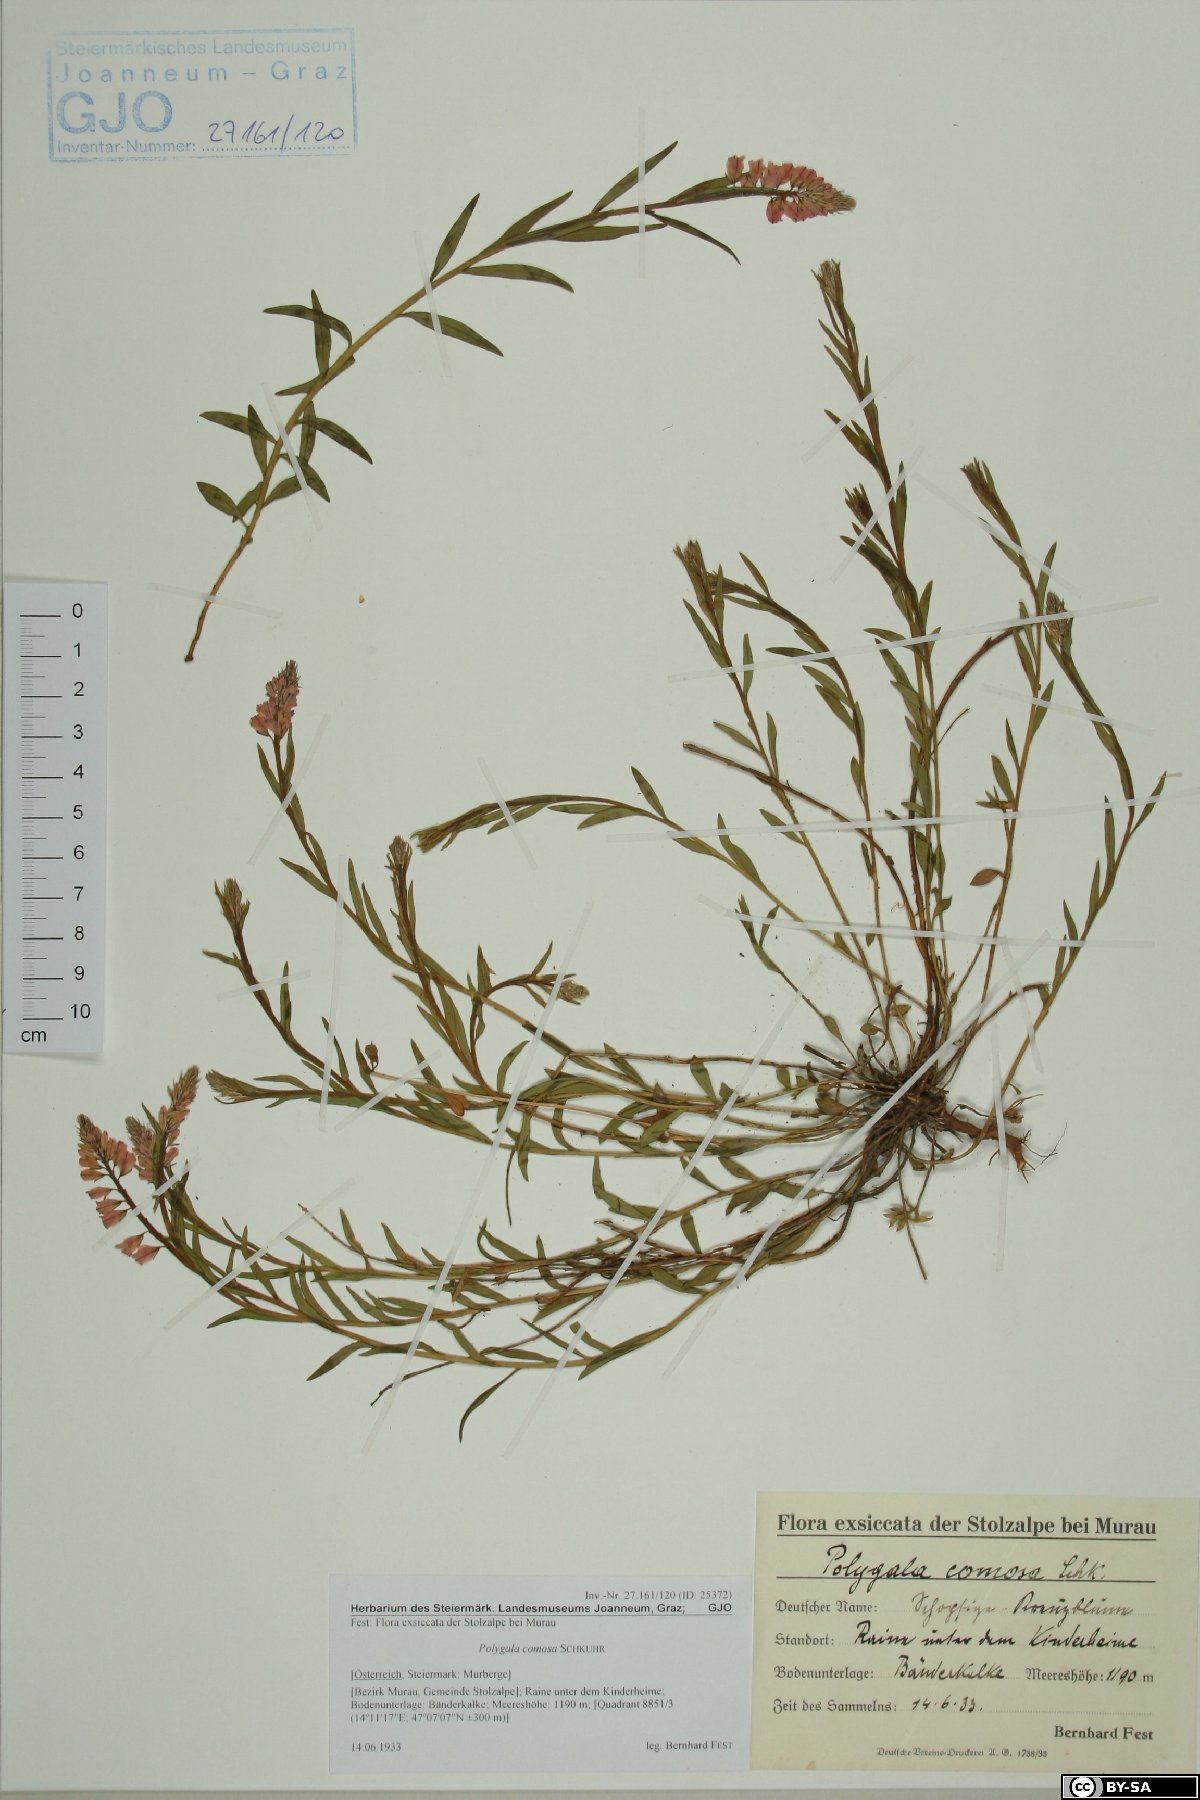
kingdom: Plantae
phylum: Tracheophyta
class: Magnoliopsida
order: Fabales
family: Polygalaceae
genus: Polygala
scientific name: Polygala comosa
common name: Tufted milkwort
